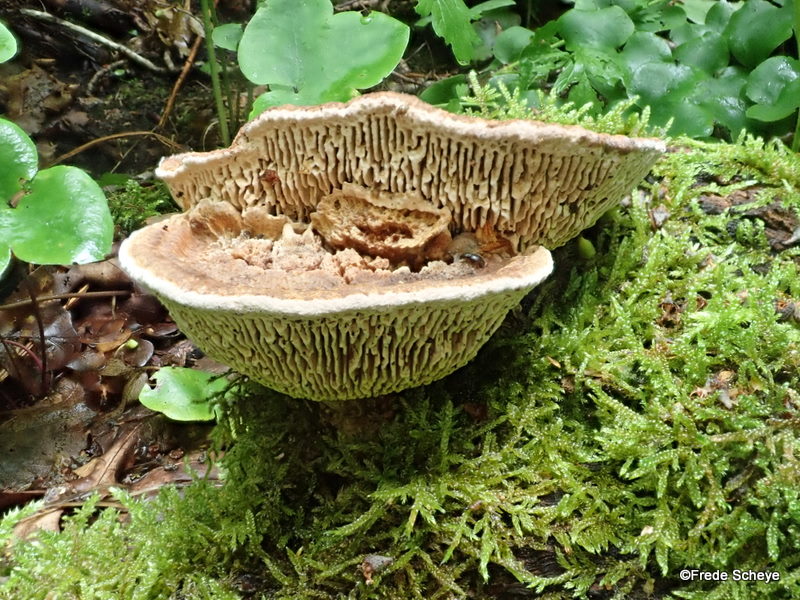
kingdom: Fungi
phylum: Basidiomycota
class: Agaricomycetes
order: Polyporales
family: Fomitopsidaceae
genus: Daedalea
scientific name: Daedalea quercina
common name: ege-labyrintsvamp
